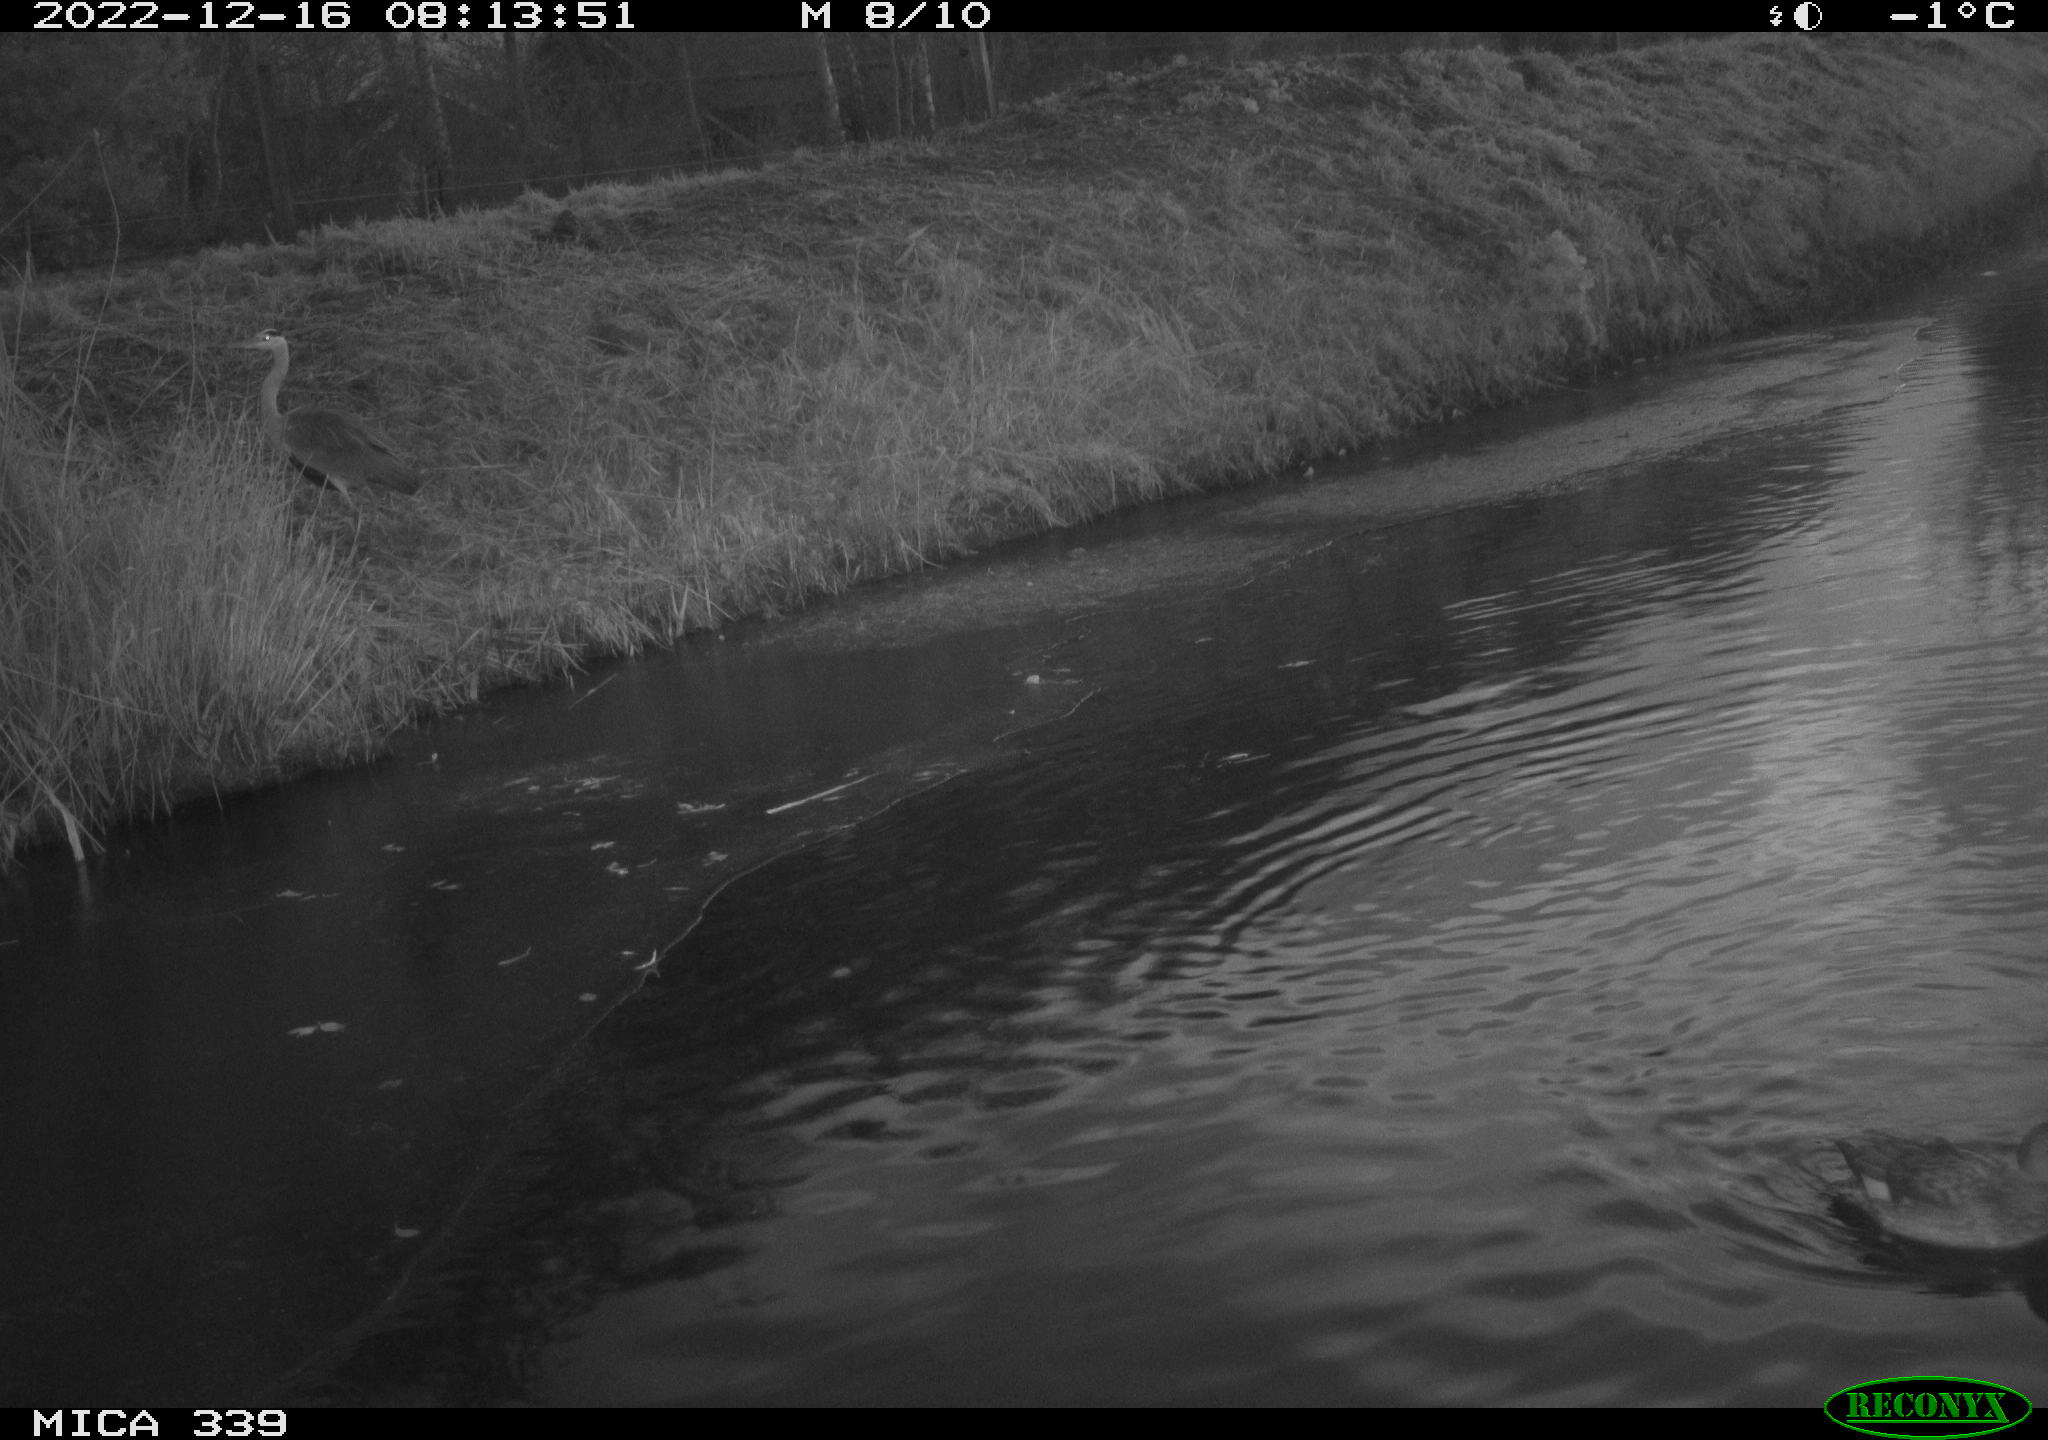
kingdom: Animalia
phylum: Chordata
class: Aves
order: Anseriformes
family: Anatidae
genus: Anas
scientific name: Anas
